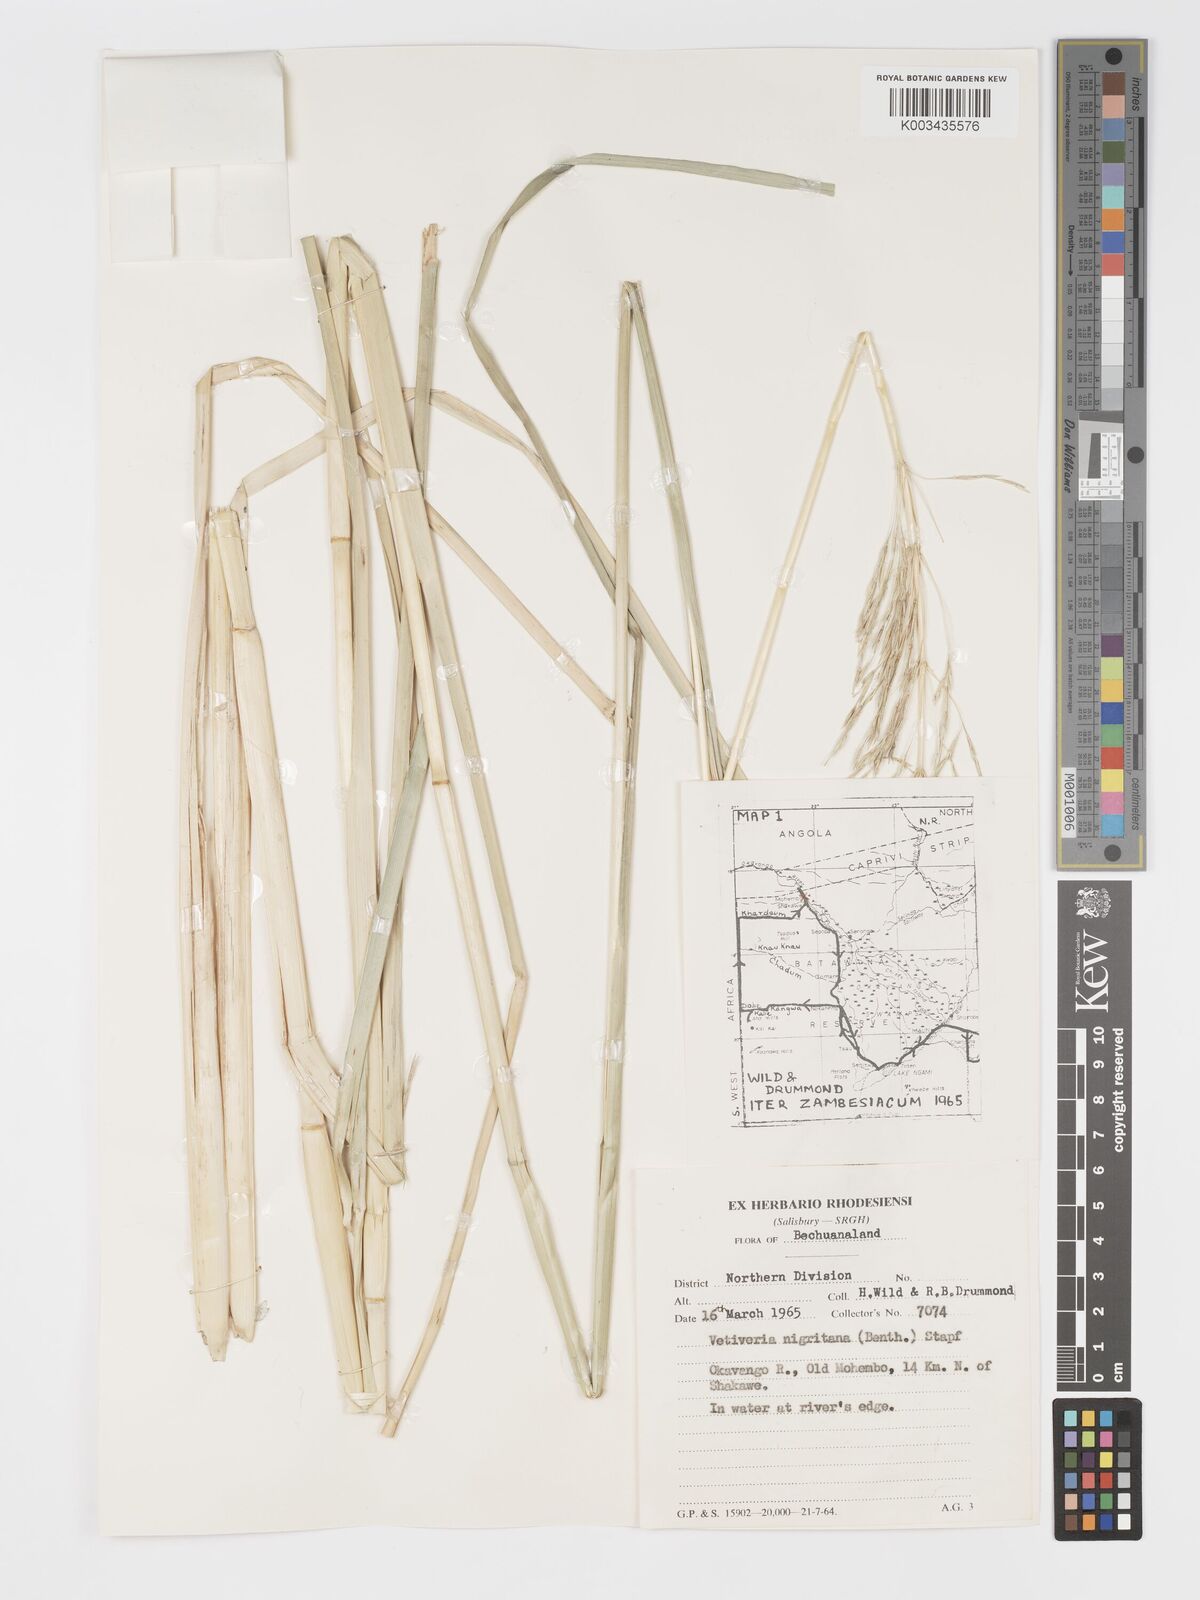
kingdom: Plantae
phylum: Tracheophyta
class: Liliopsida
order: Poales
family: Poaceae
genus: Chrysopogon
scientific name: Chrysopogon nigritanus
